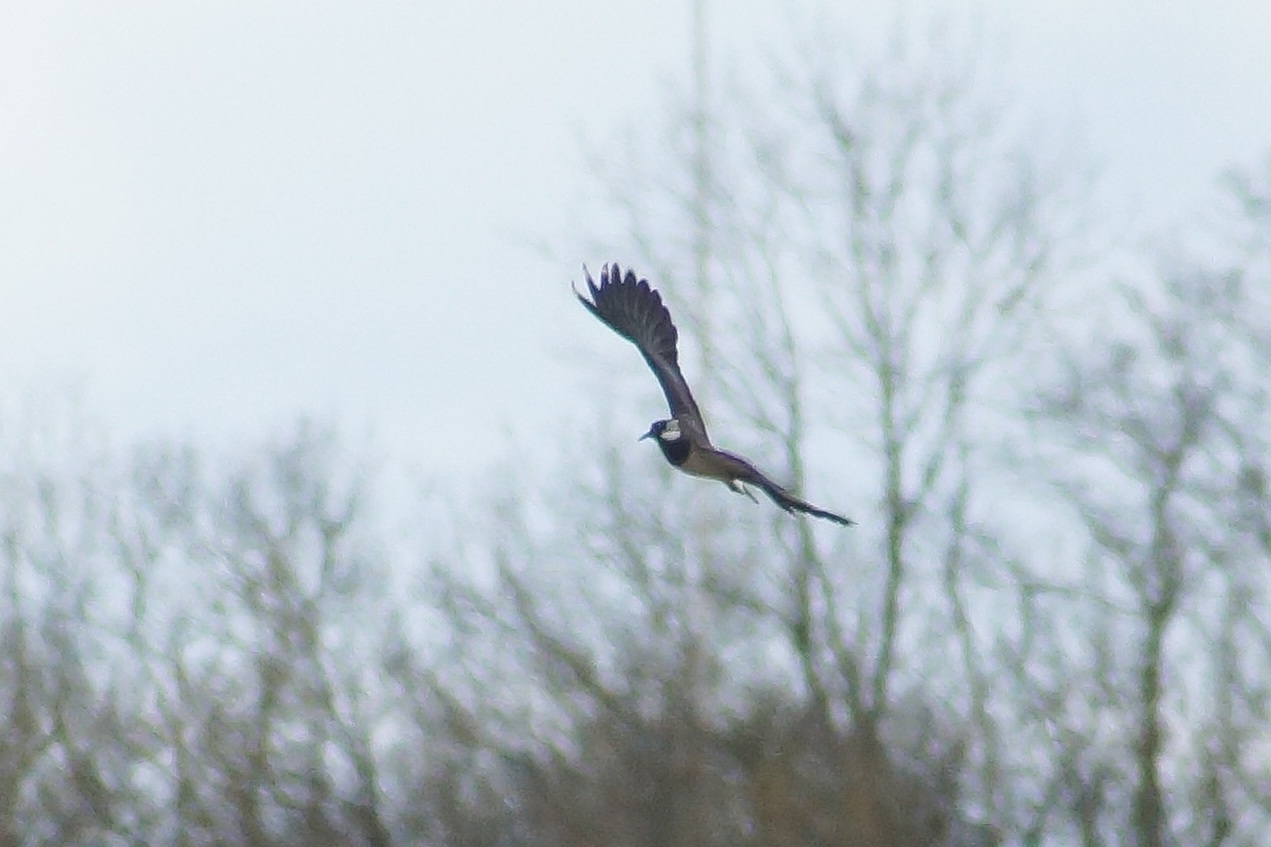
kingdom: Animalia
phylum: Chordata
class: Aves
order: Charadriiformes
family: Charadriidae
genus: Vanellus
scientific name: Vanellus vanellus
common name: Vibe
